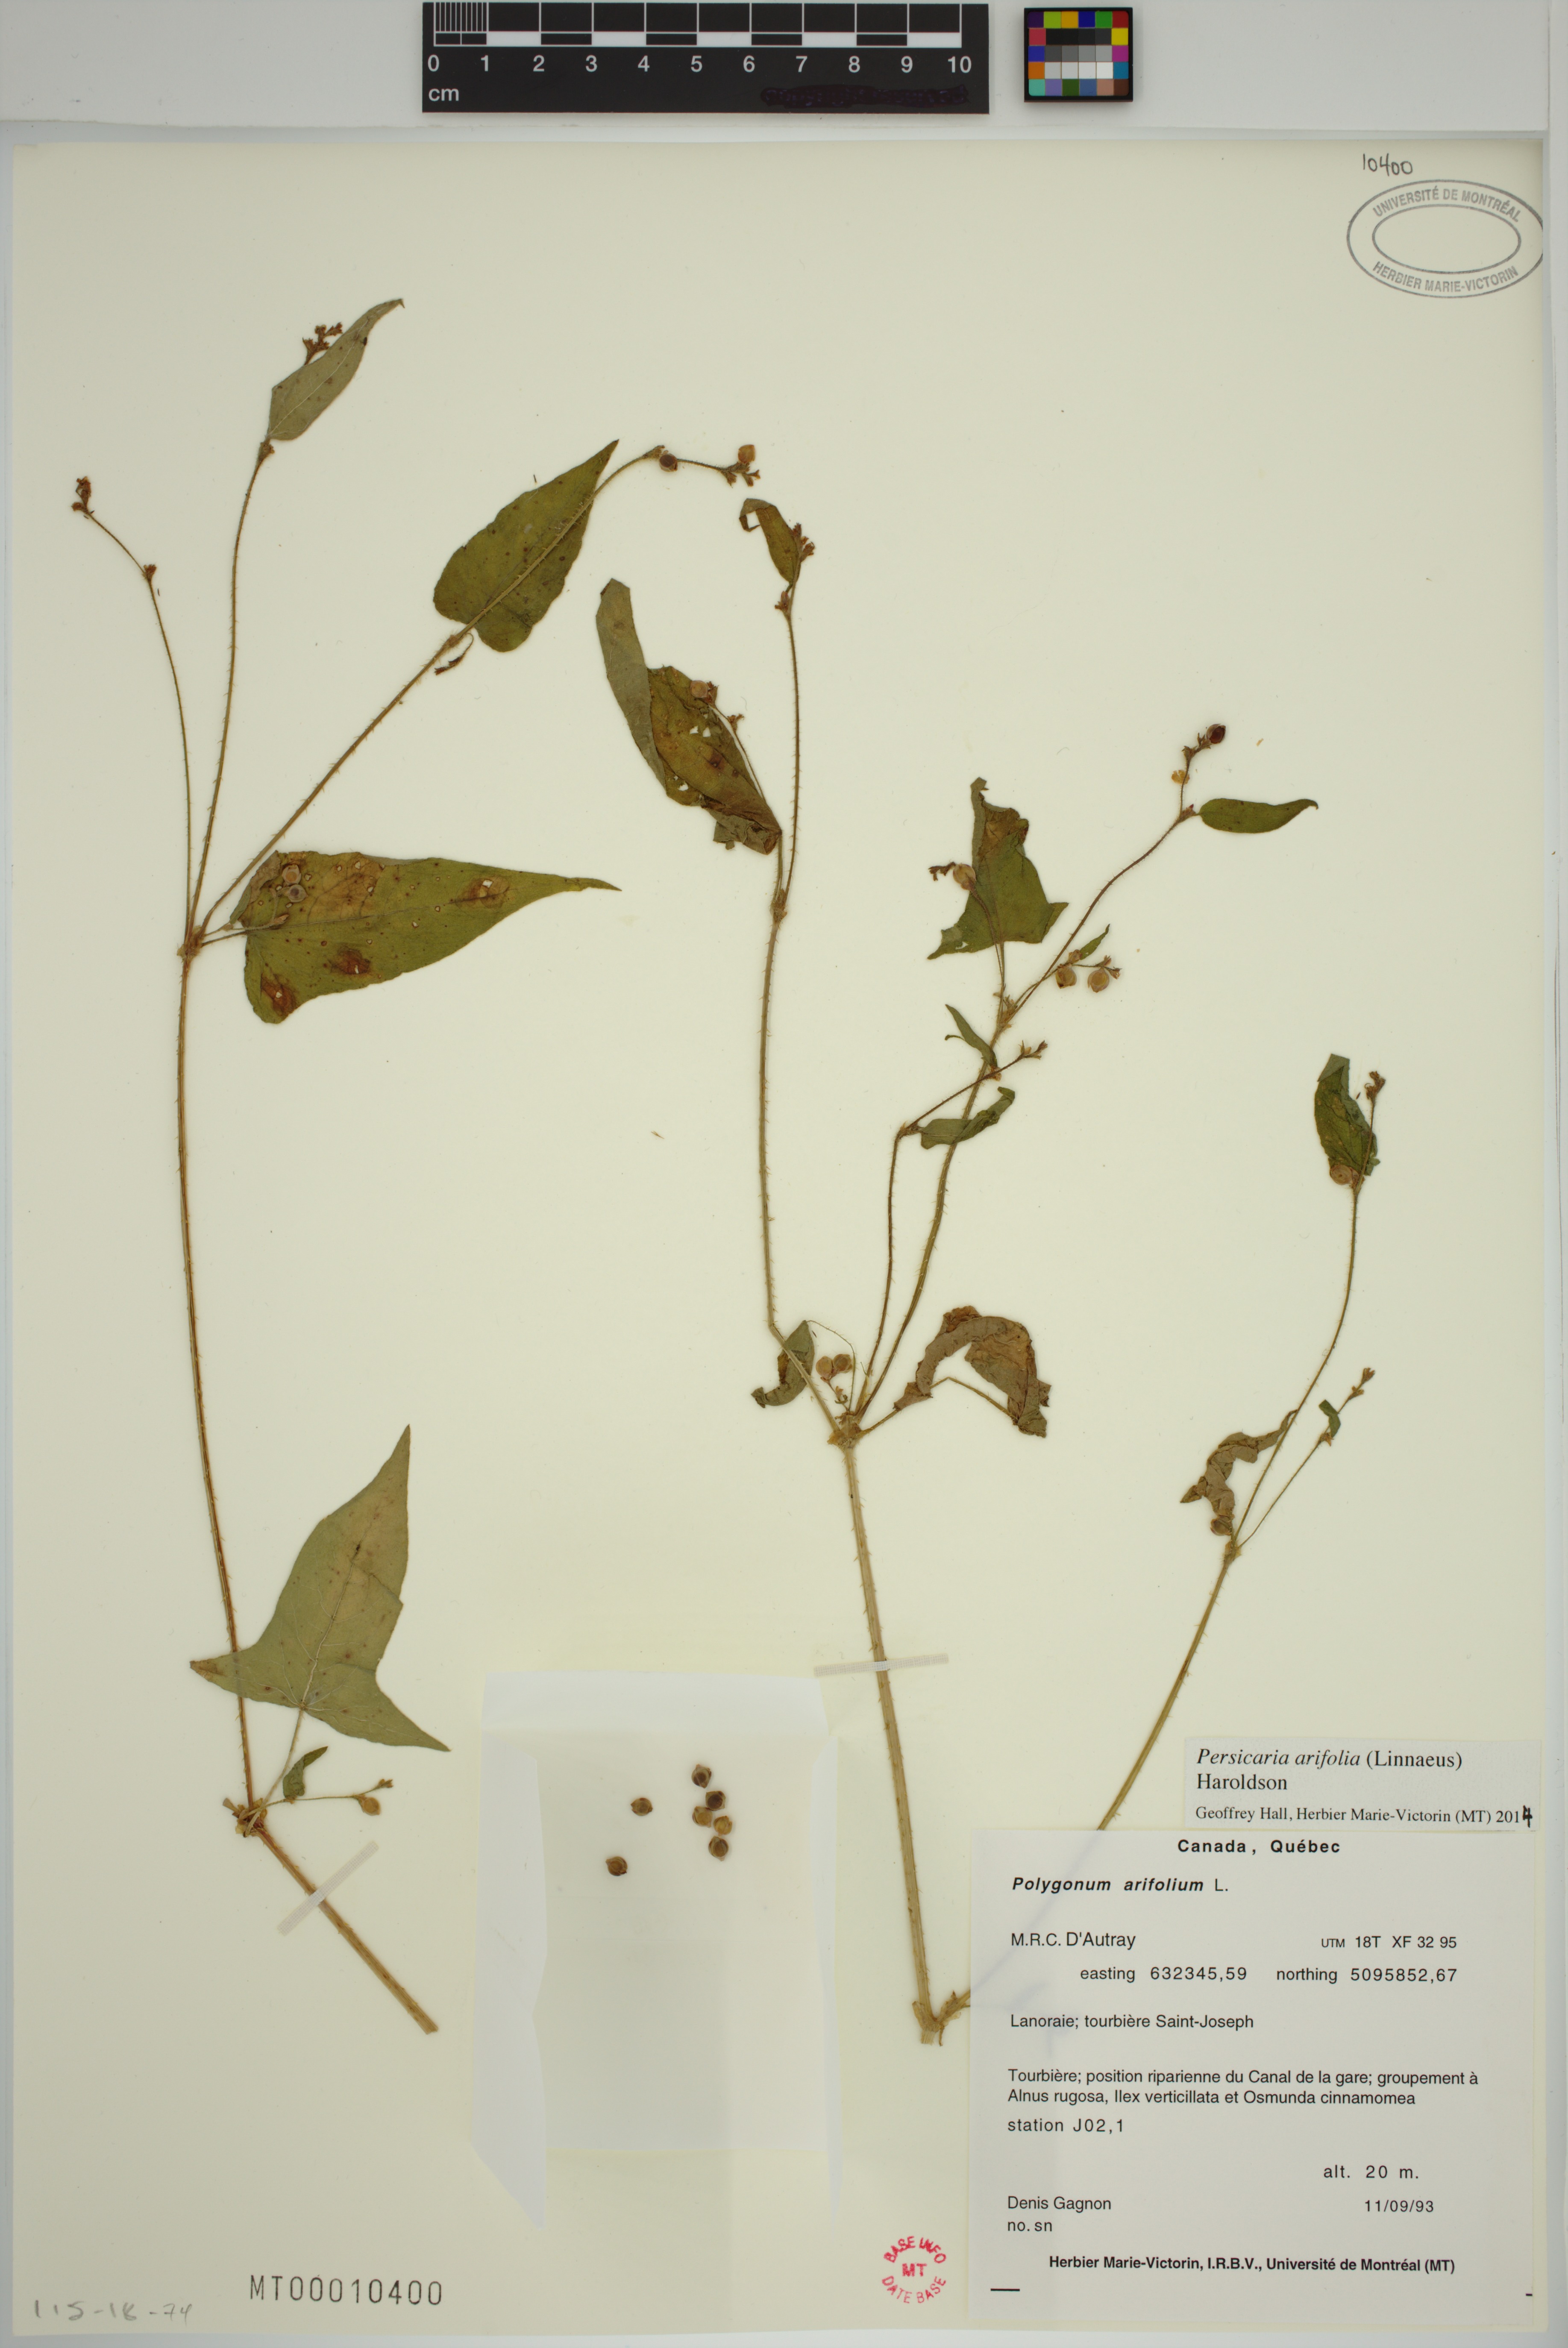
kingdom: Plantae
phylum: Tracheophyta
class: Magnoliopsida
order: Caryophyllales
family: Polygonaceae
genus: Persicaria
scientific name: Persicaria arifolia
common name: Halberd-leaved tear-thumb
